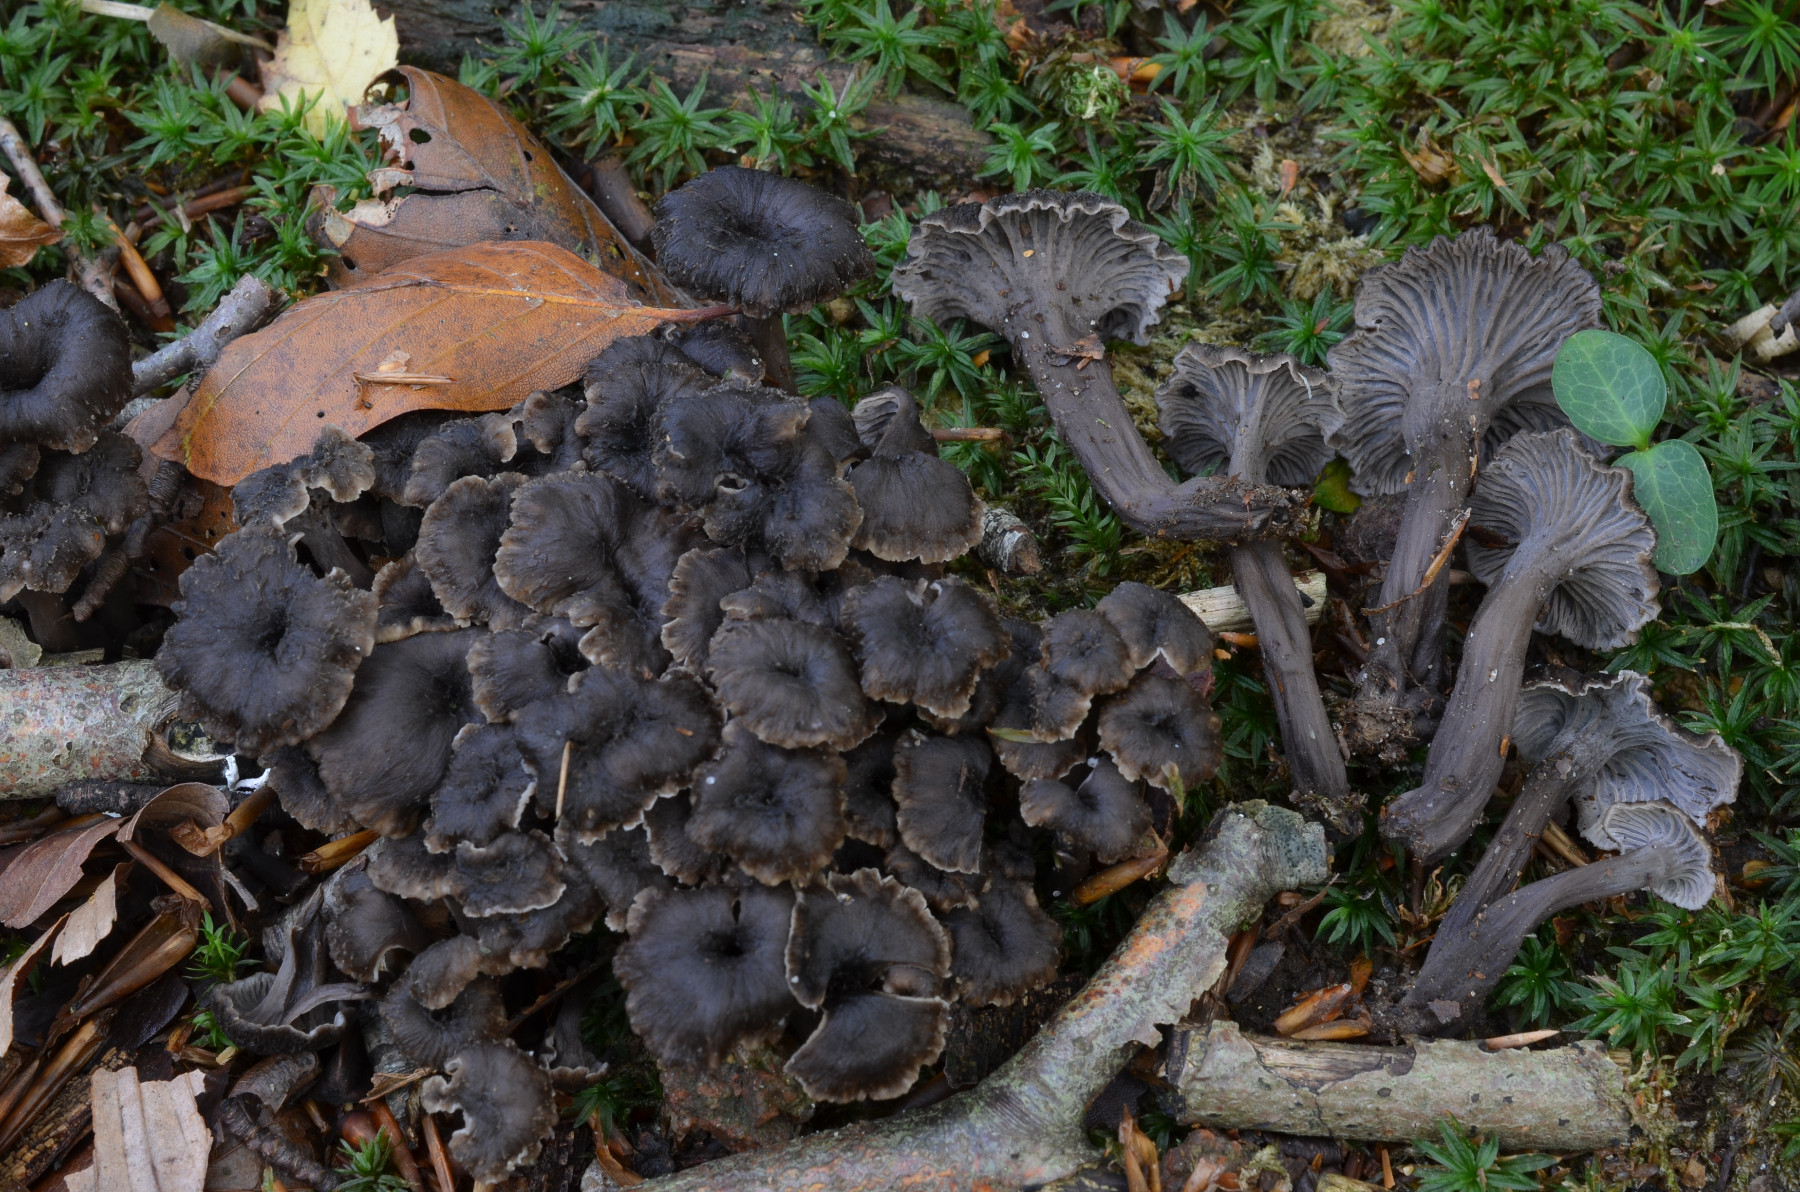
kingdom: Fungi
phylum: Basidiomycota
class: Agaricomycetes
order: Cantharellales
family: Hydnaceae
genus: Cantharellus
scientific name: Cantharellus cinereus
